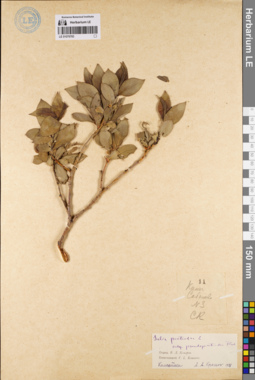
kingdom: Plantae
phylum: Tracheophyta
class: Magnoliopsida
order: Malpighiales
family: Salicaceae
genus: Salix
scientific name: Salix pseudopentandra
